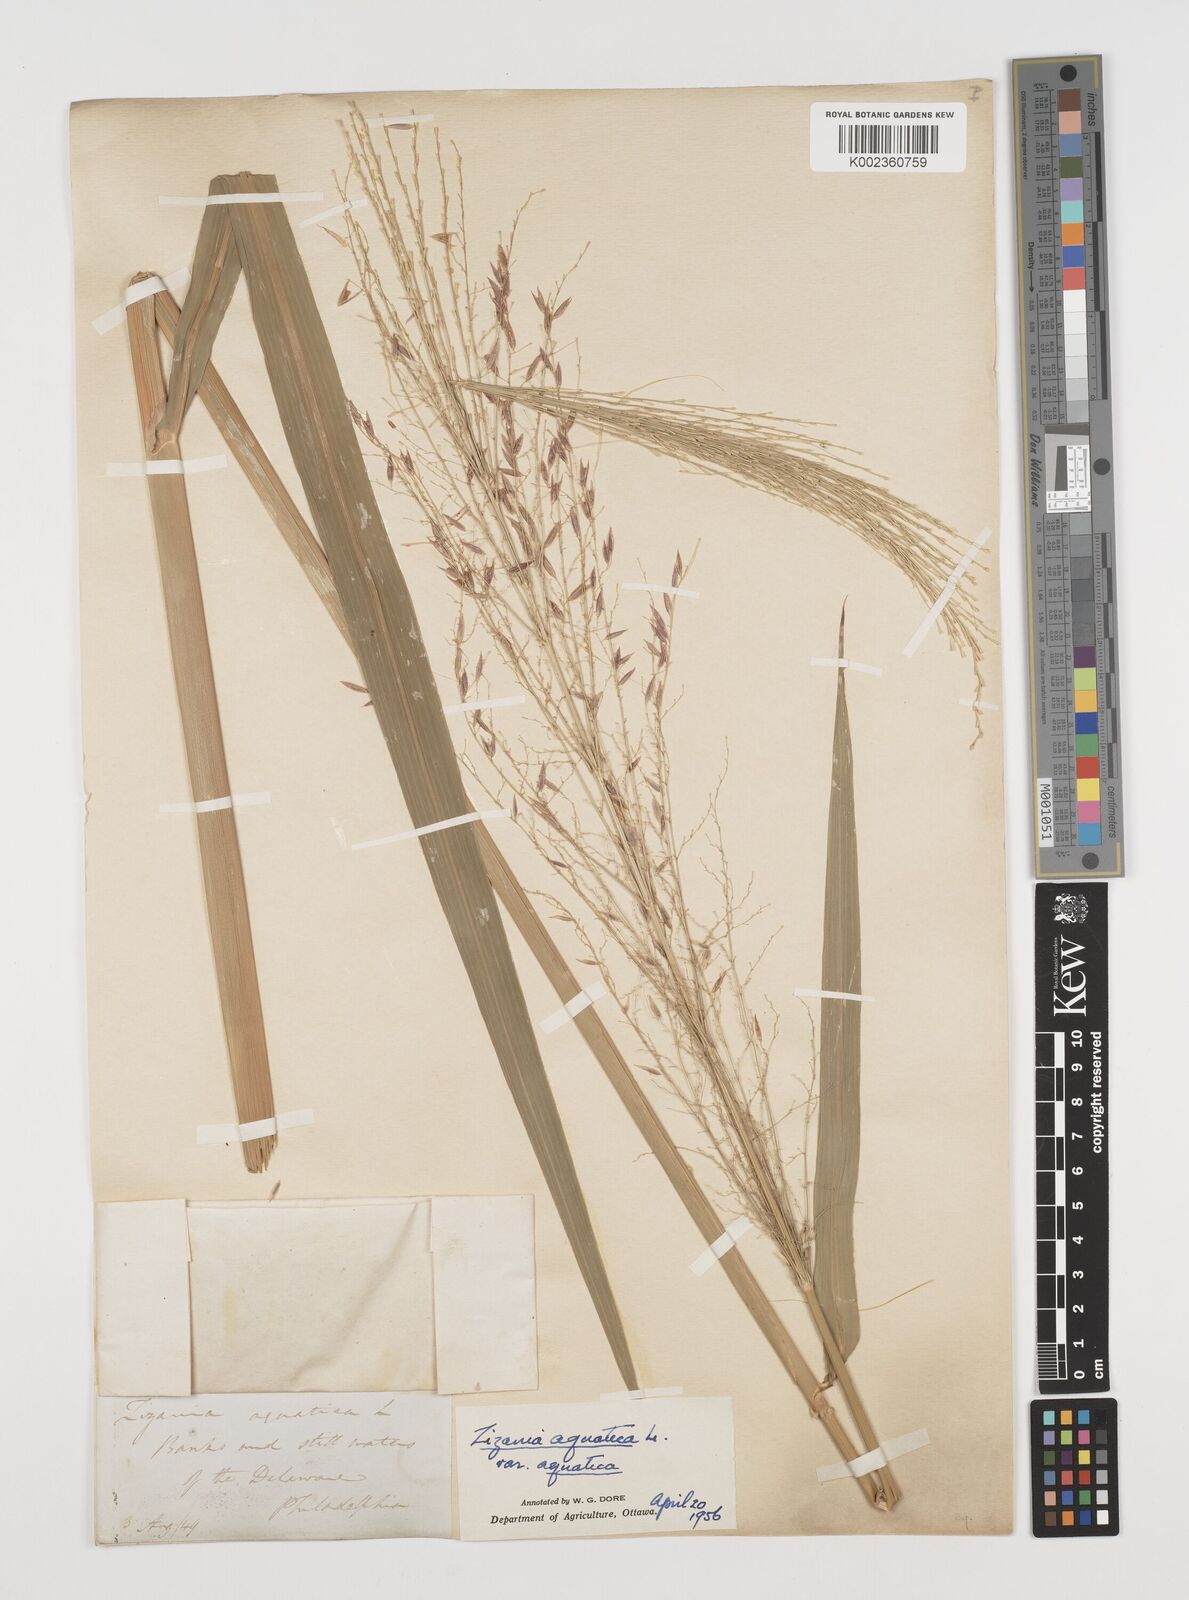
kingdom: Plantae
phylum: Tracheophyta
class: Liliopsida
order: Poales
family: Poaceae
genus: Zizania
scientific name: Zizania aquatica
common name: Annual wildrice
